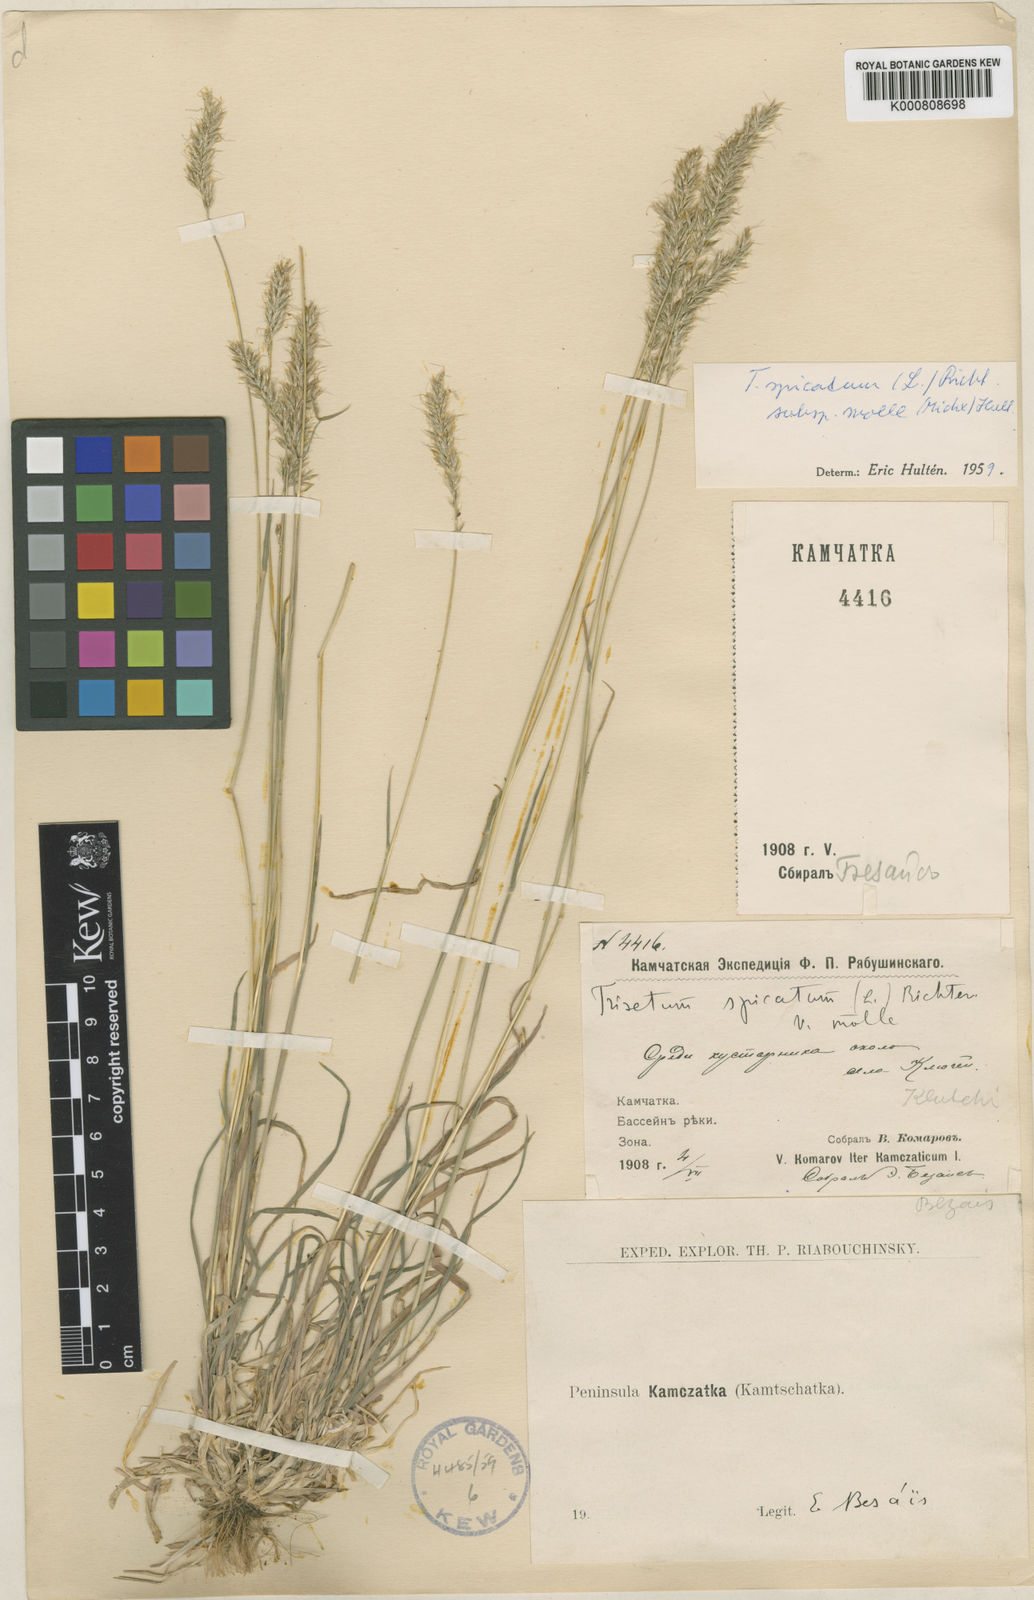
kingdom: Plantae
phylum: Tracheophyta
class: Liliopsida
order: Poales
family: Poaceae
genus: Koeleria
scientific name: Koeleria spicata
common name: Mountain trisetum
